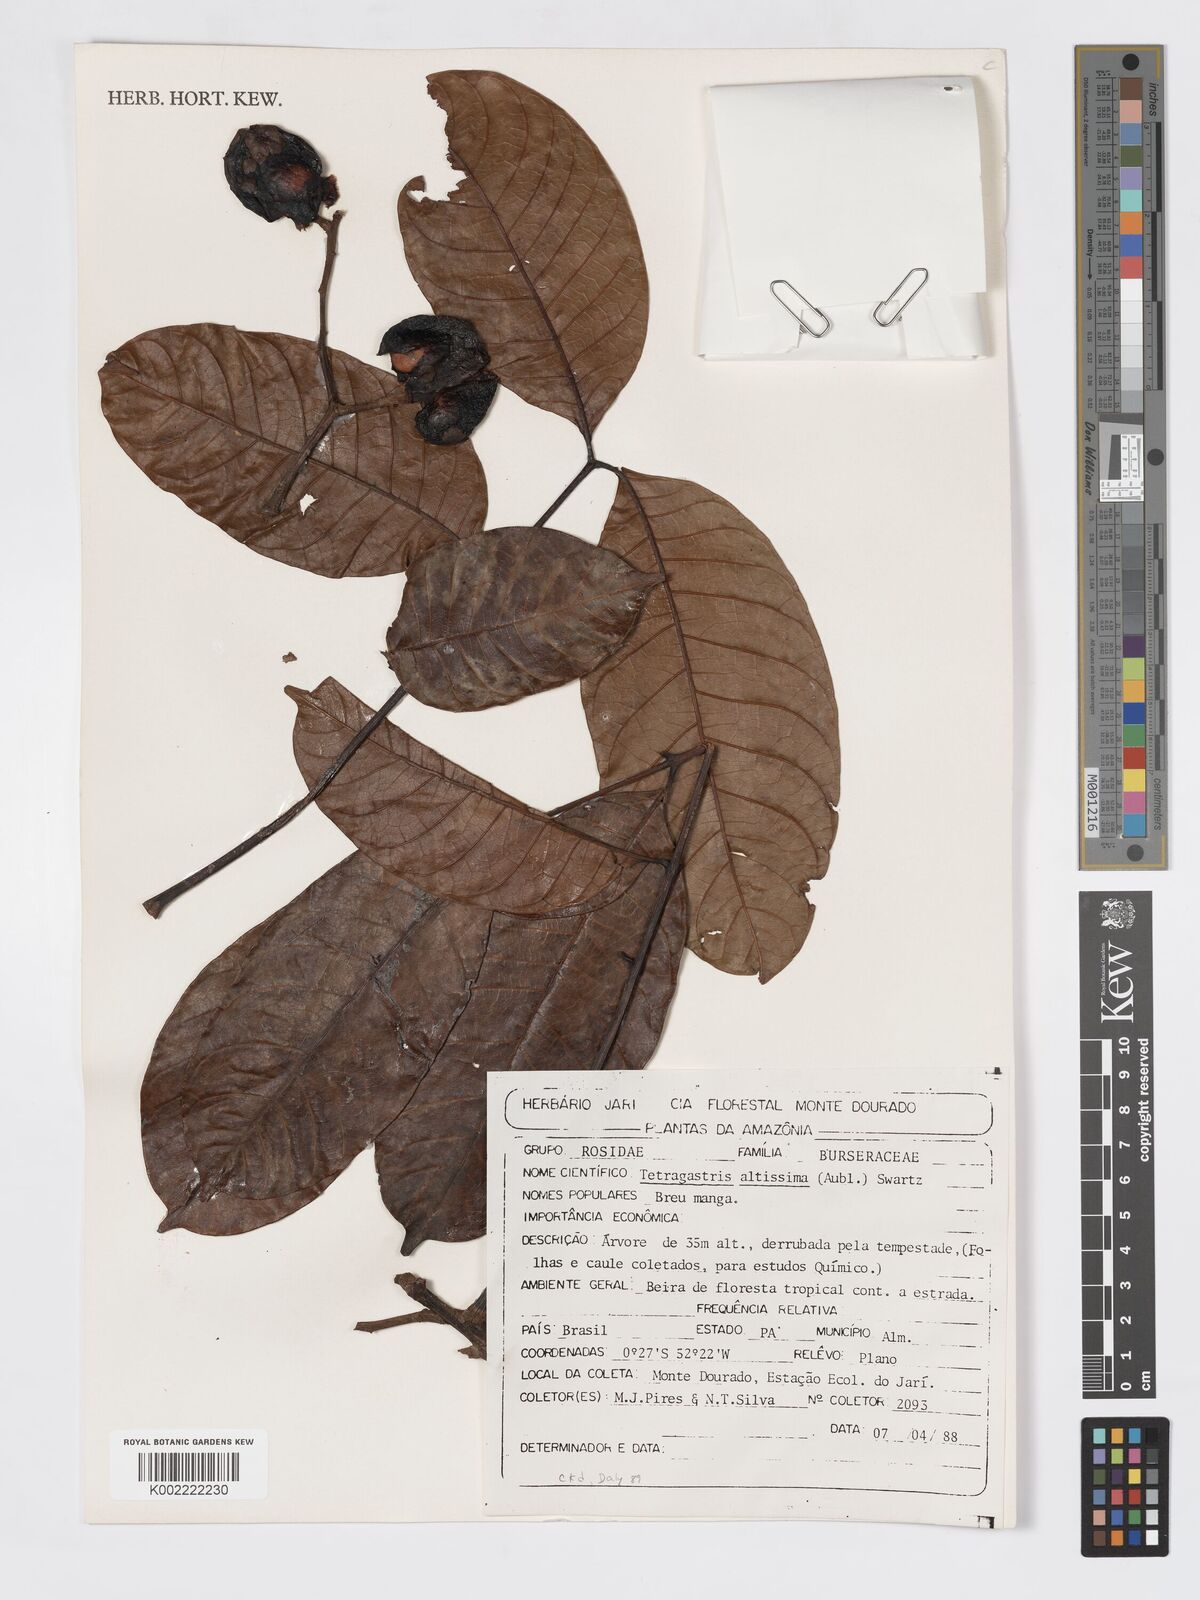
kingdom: Plantae
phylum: Tracheophyta
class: Magnoliopsida
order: Sapindales
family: Burseraceae
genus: Tetragastris
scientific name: Tetragastris altissima
